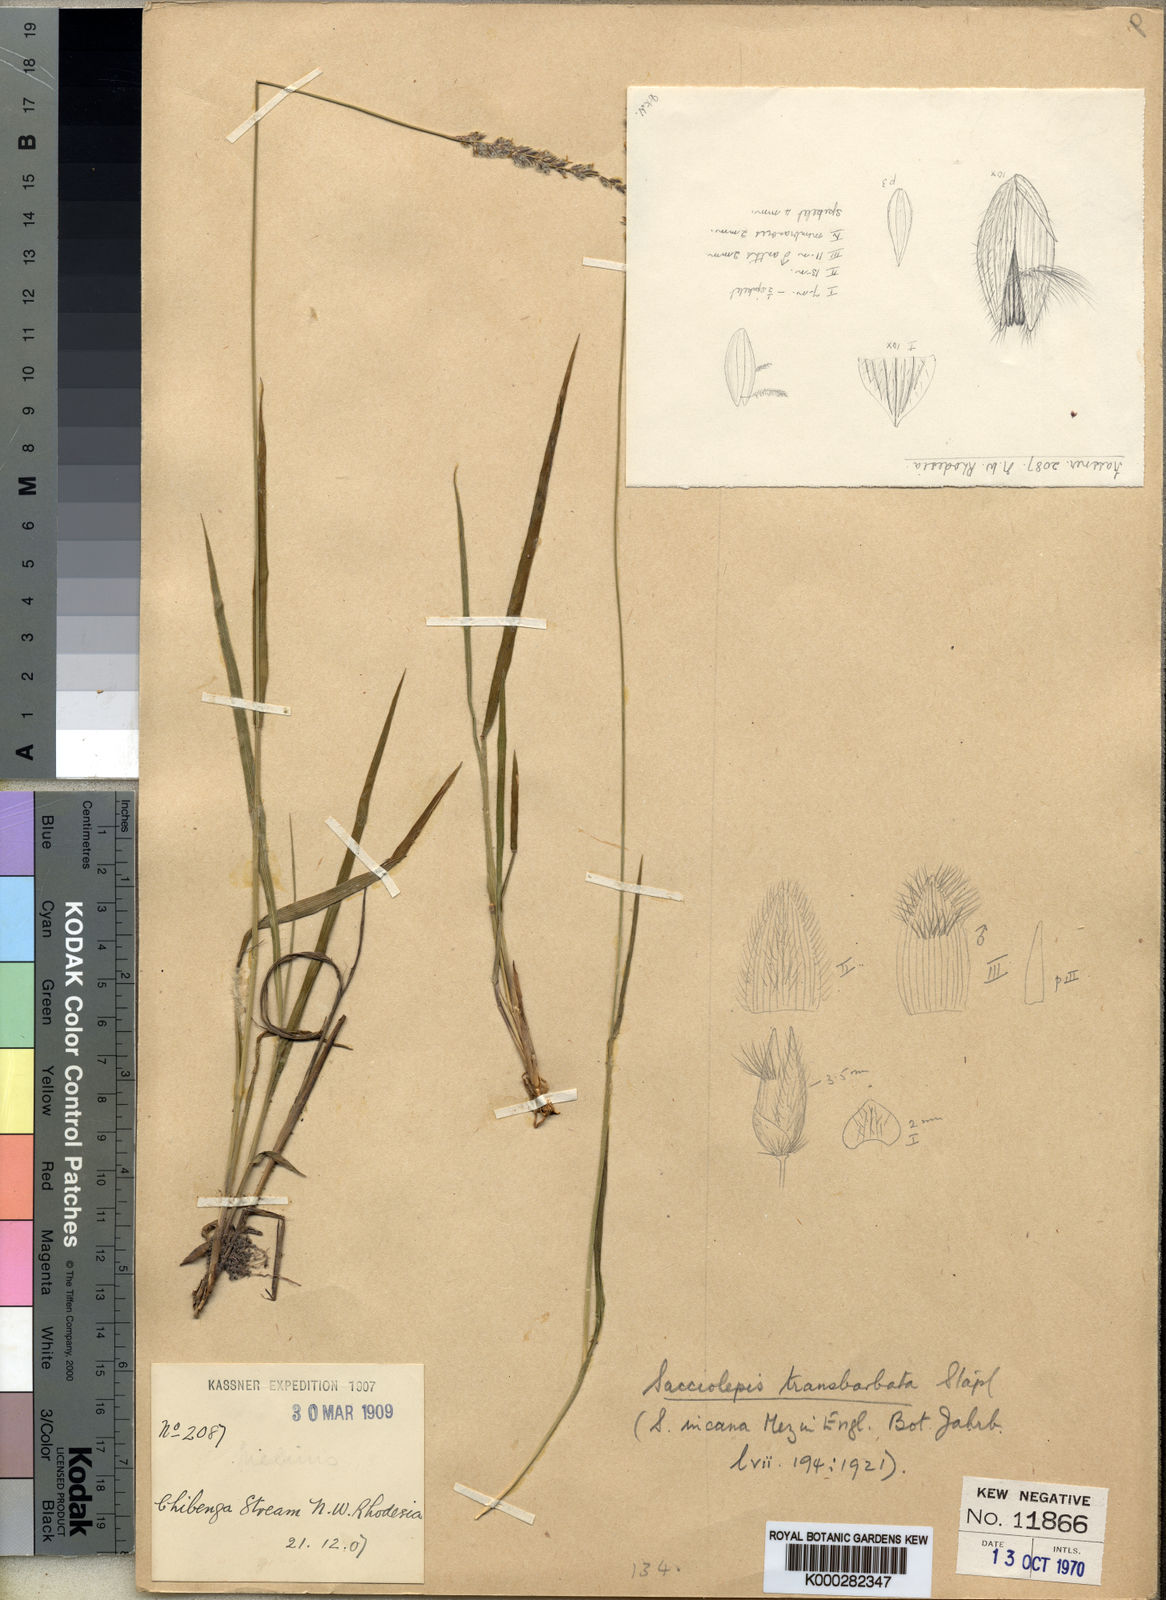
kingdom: Plantae
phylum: Tracheophyta
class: Liliopsida
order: Poales
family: Poaceae
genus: Sacciolepis
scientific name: Sacciolepis transbarbata
